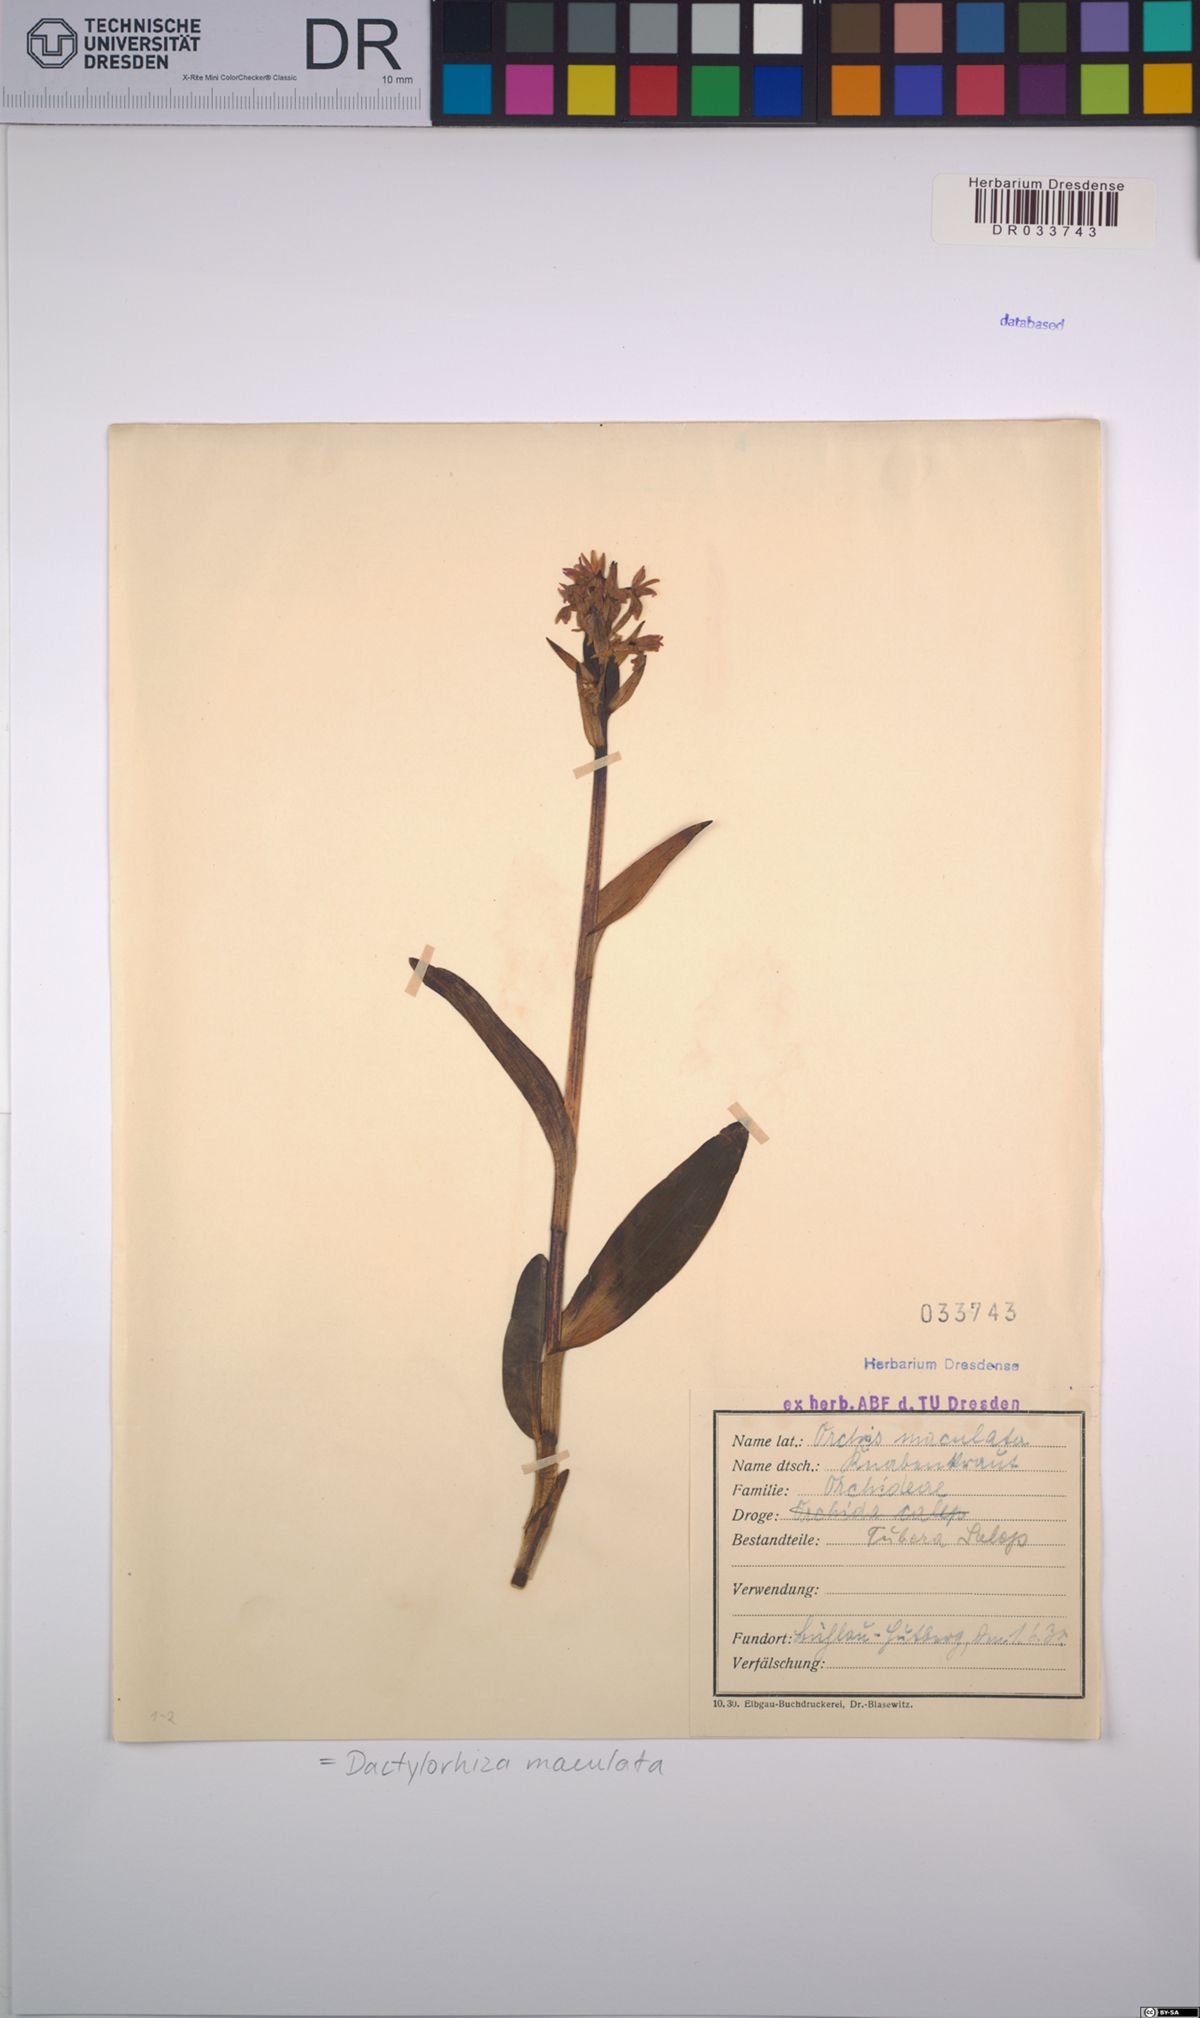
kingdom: Plantae
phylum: Tracheophyta
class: Liliopsida
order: Asparagales
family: Orchidaceae
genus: Dactylorhiza
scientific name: Dactylorhiza maculata
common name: Heath spotted-orchid
